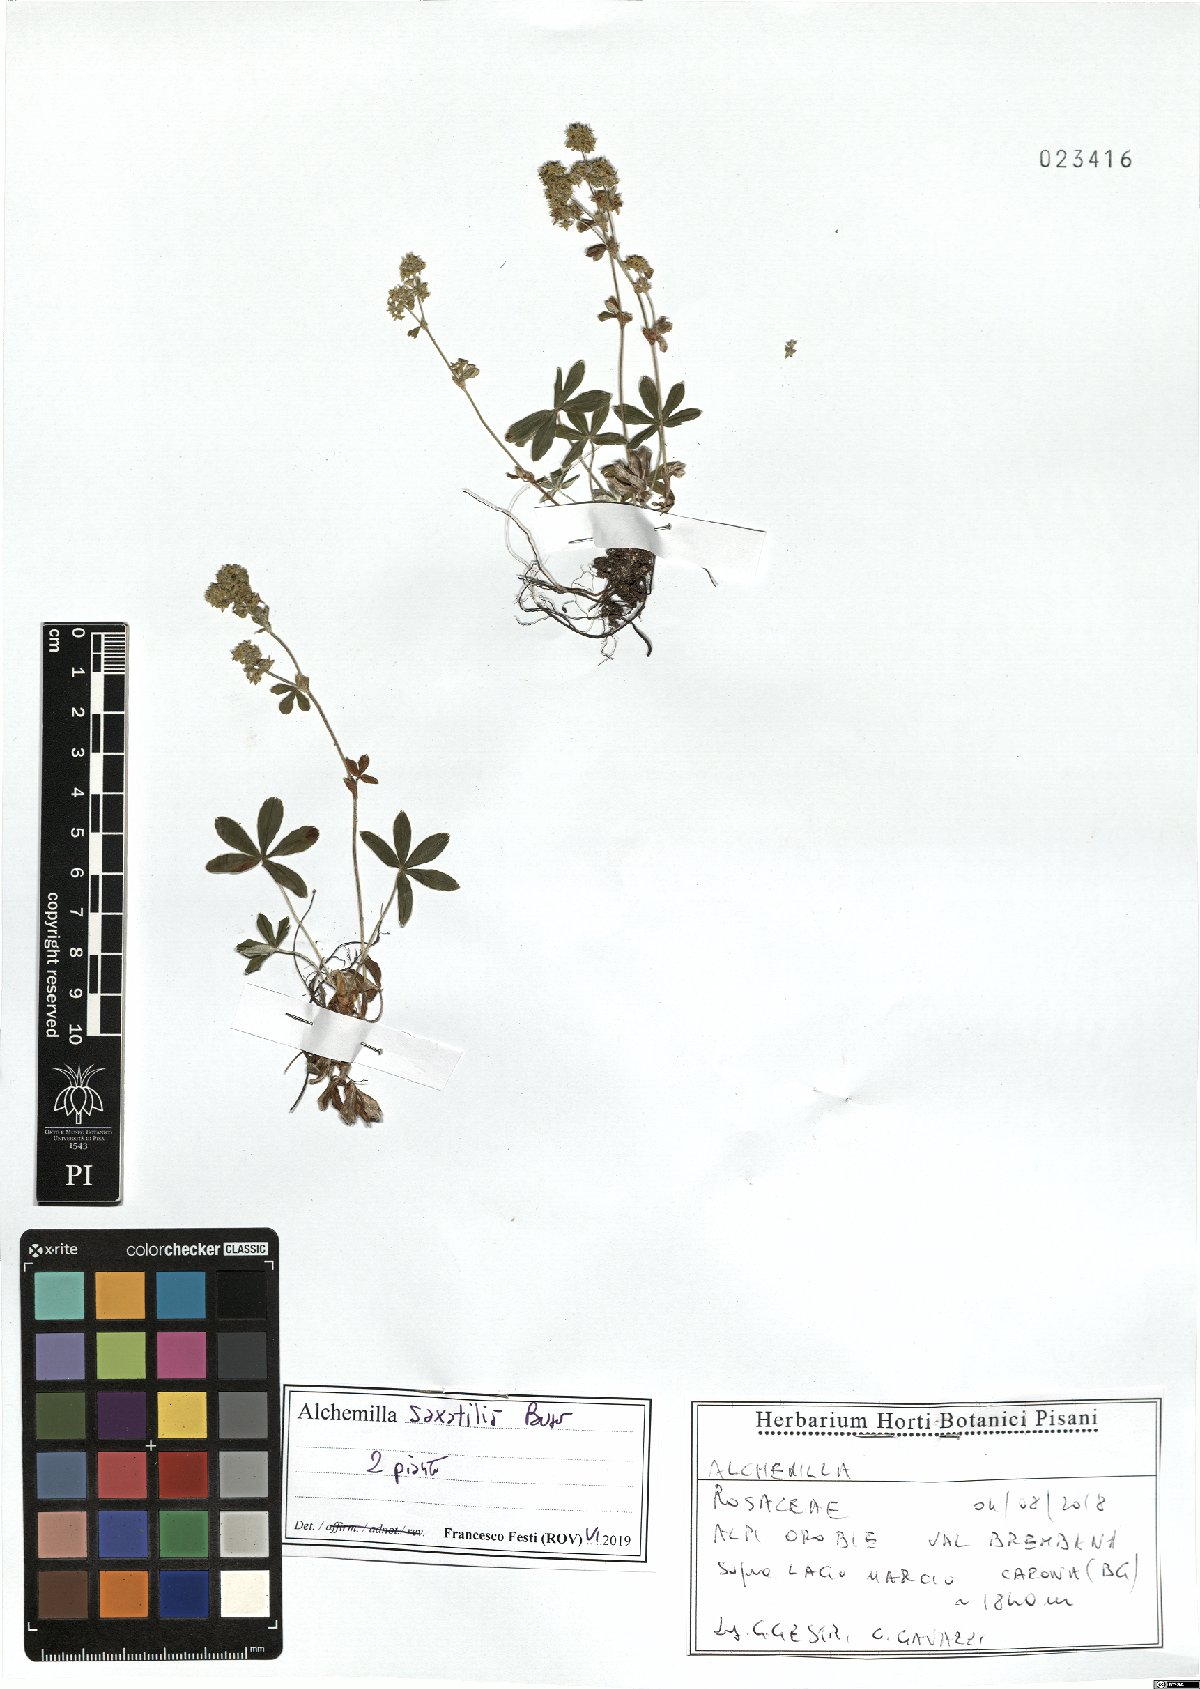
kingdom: Plantae
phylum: Tracheophyta
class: Magnoliopsida
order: Rosales
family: Rosaceae
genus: Alchemilla
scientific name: Alchemilla saxatilis
